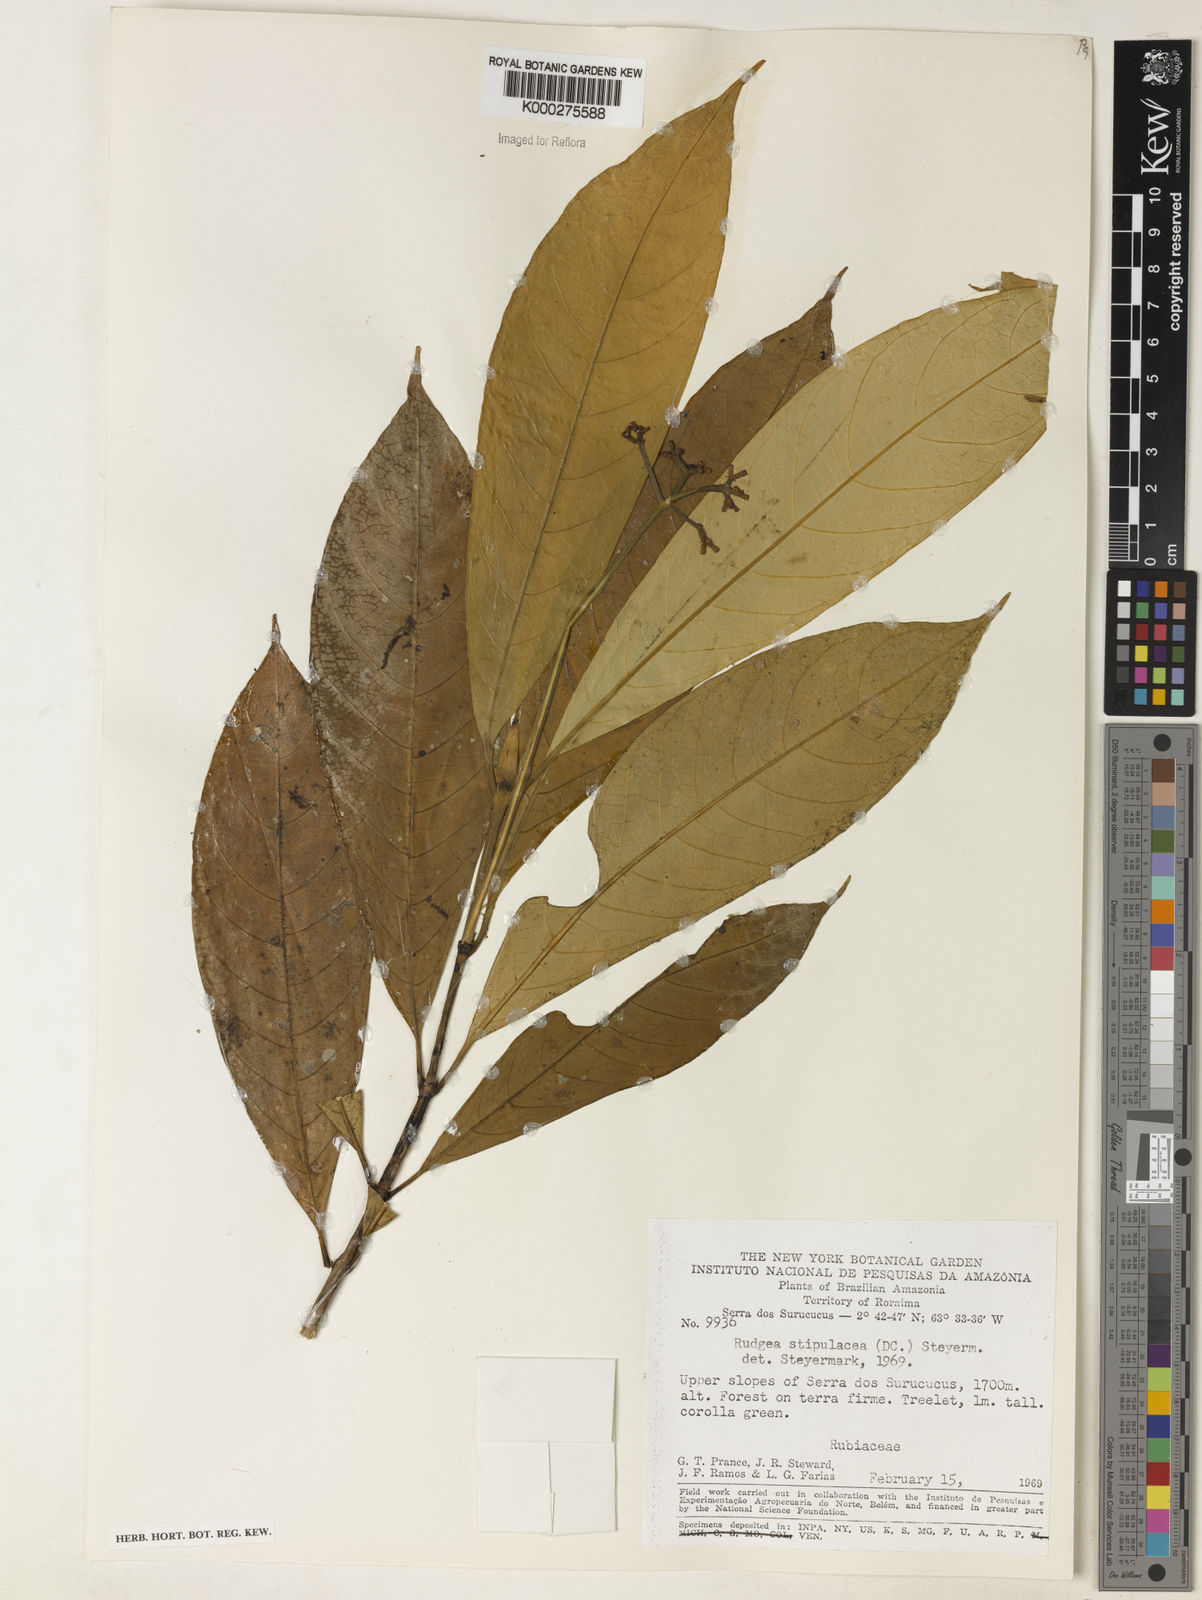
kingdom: Plantae
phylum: Tracheophyta
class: Magnoliopsida
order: Gentianales
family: Rubiaceae
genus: Rudgea
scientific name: Rudgea stipulacea
